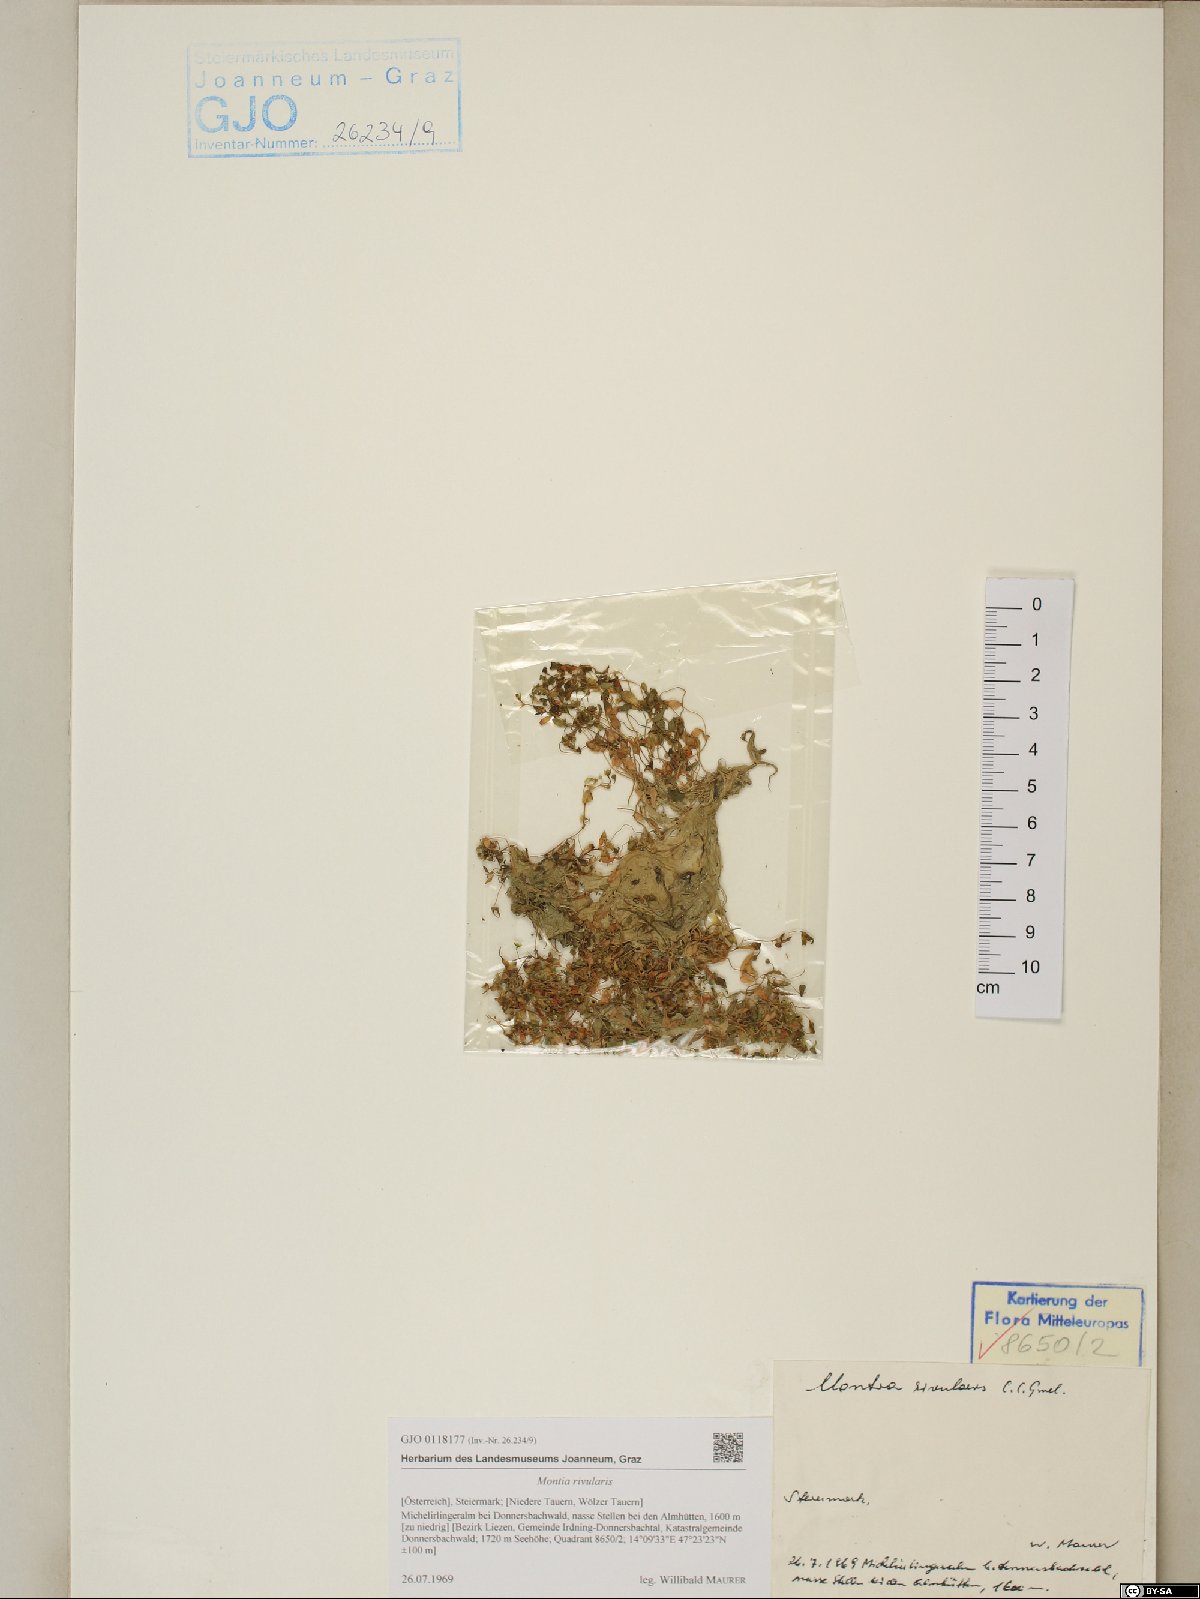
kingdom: Plantae
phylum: Tracheophyta
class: Magnoliopsida
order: Caryophyllales
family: Montiaceae
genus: Montia
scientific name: Montia fontana
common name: Blinks
